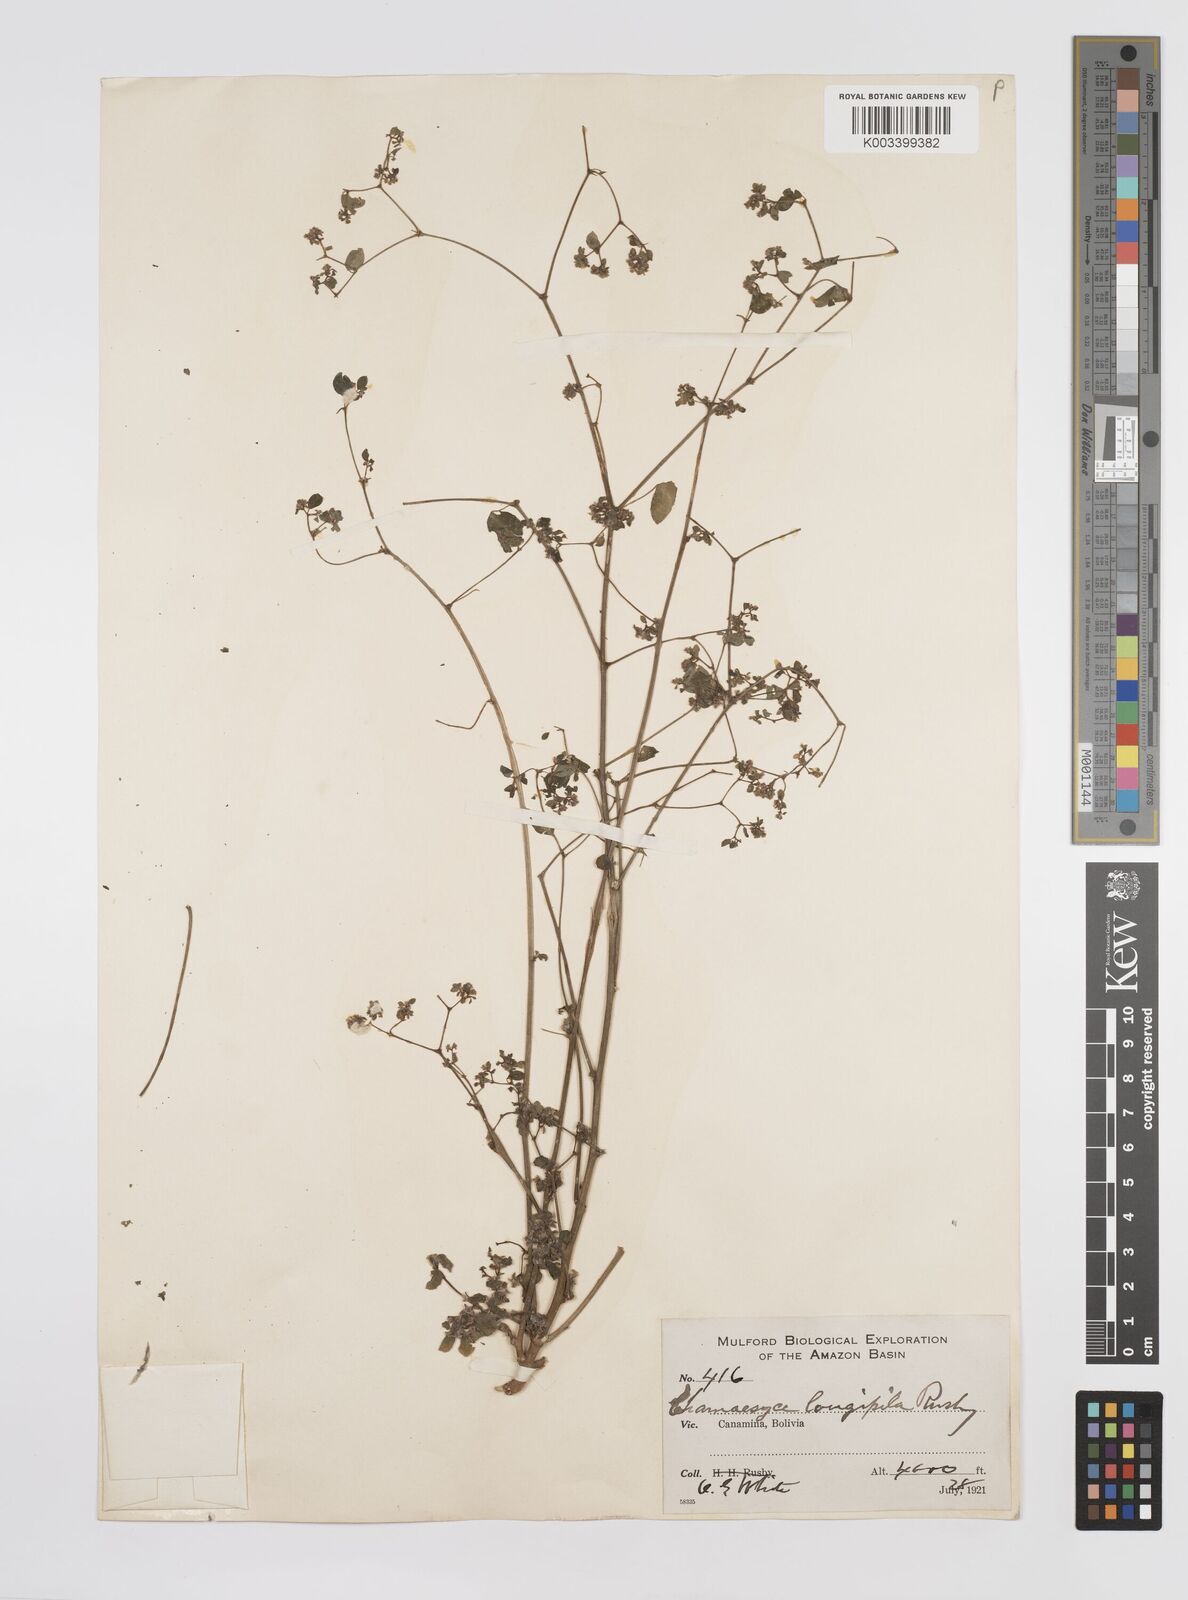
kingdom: Plantae
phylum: Tracheophyta
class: Magnoliopsida
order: Malpighiales
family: Euphorbiaceae
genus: Euphorbia
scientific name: Euphorbia acerensis
